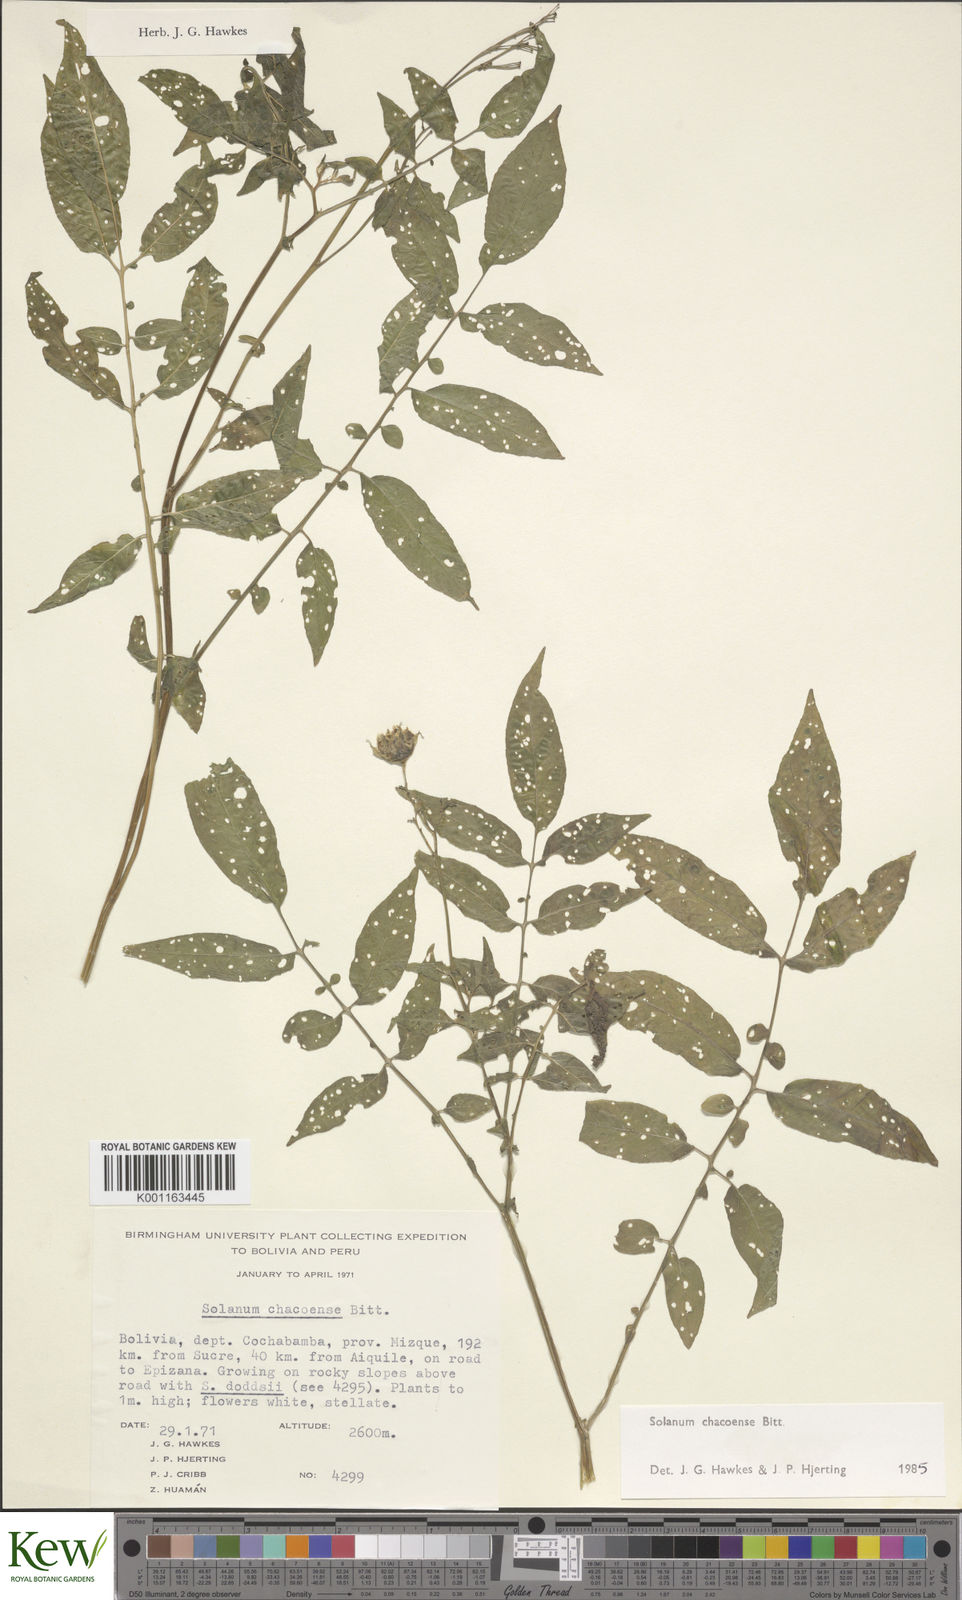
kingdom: Plantae
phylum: Tracheophyta
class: Magnoliopsida
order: Solanales
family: Solanaceae
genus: Solanum
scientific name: Solanum chacoense
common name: Chaco potato
